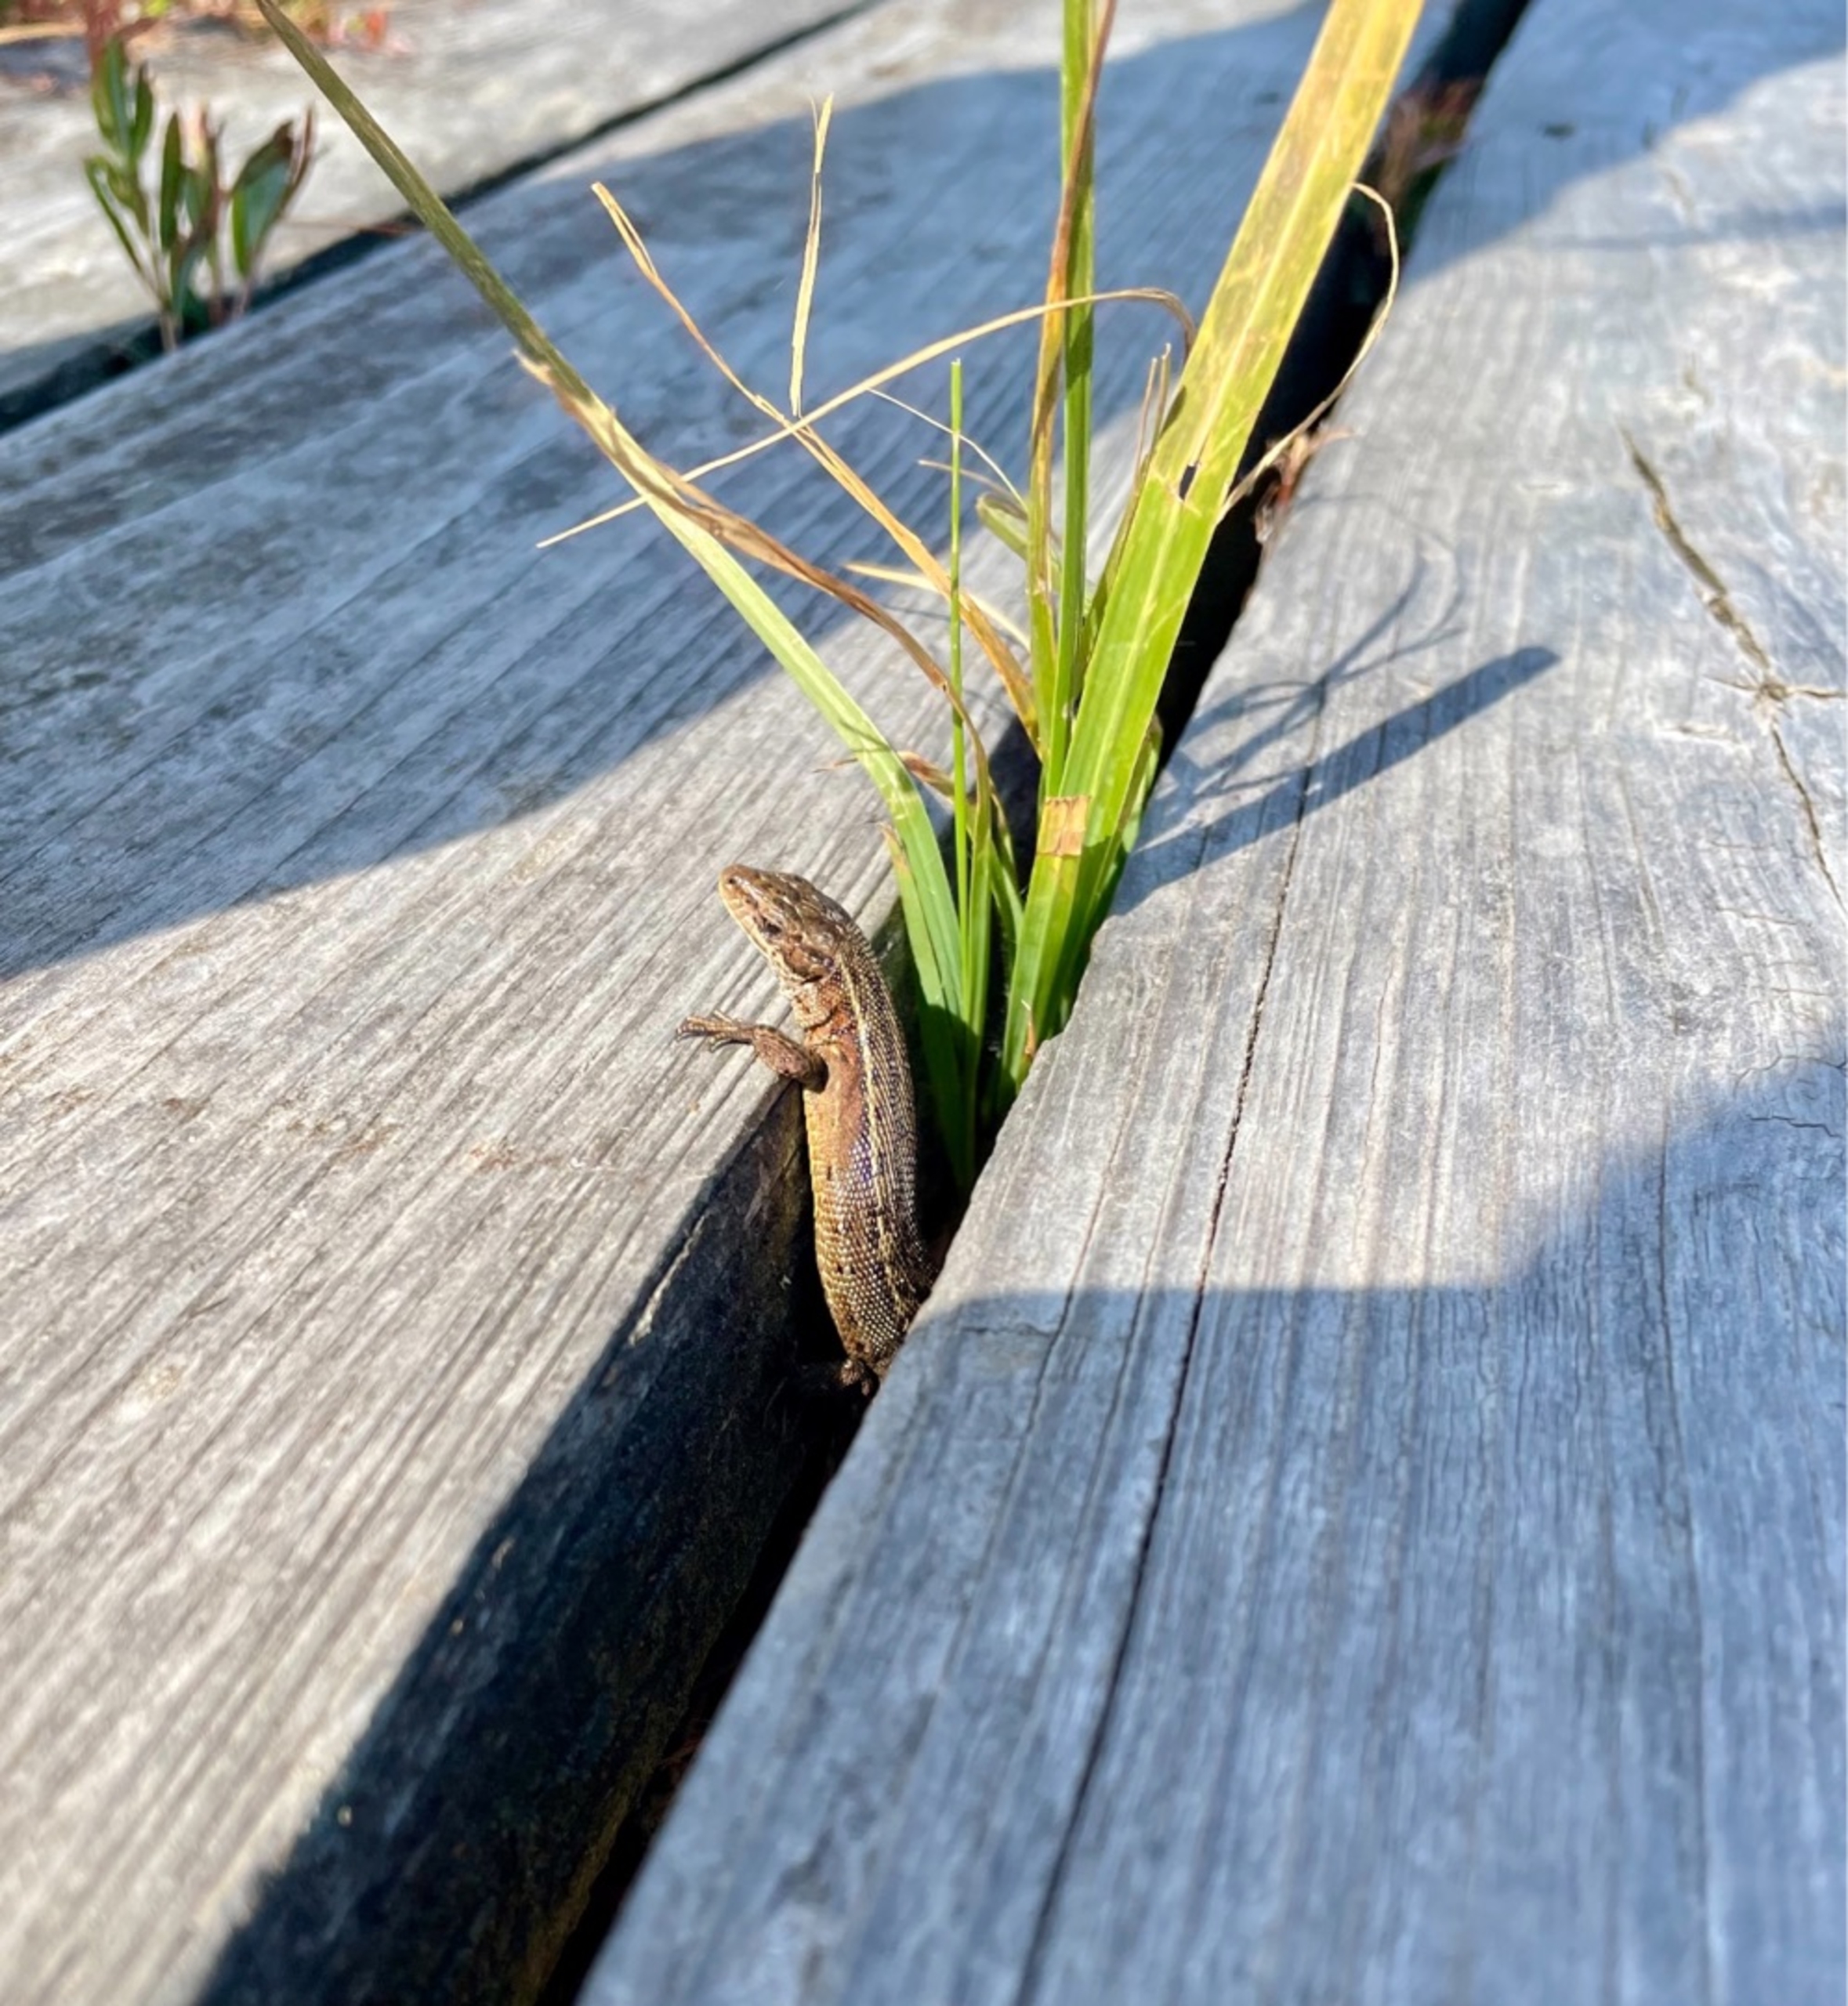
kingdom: Animalia
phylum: Chordata
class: Squamata
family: Lacertidae
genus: Zootoca
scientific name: Zootoca vivipara
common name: Skovfirben
